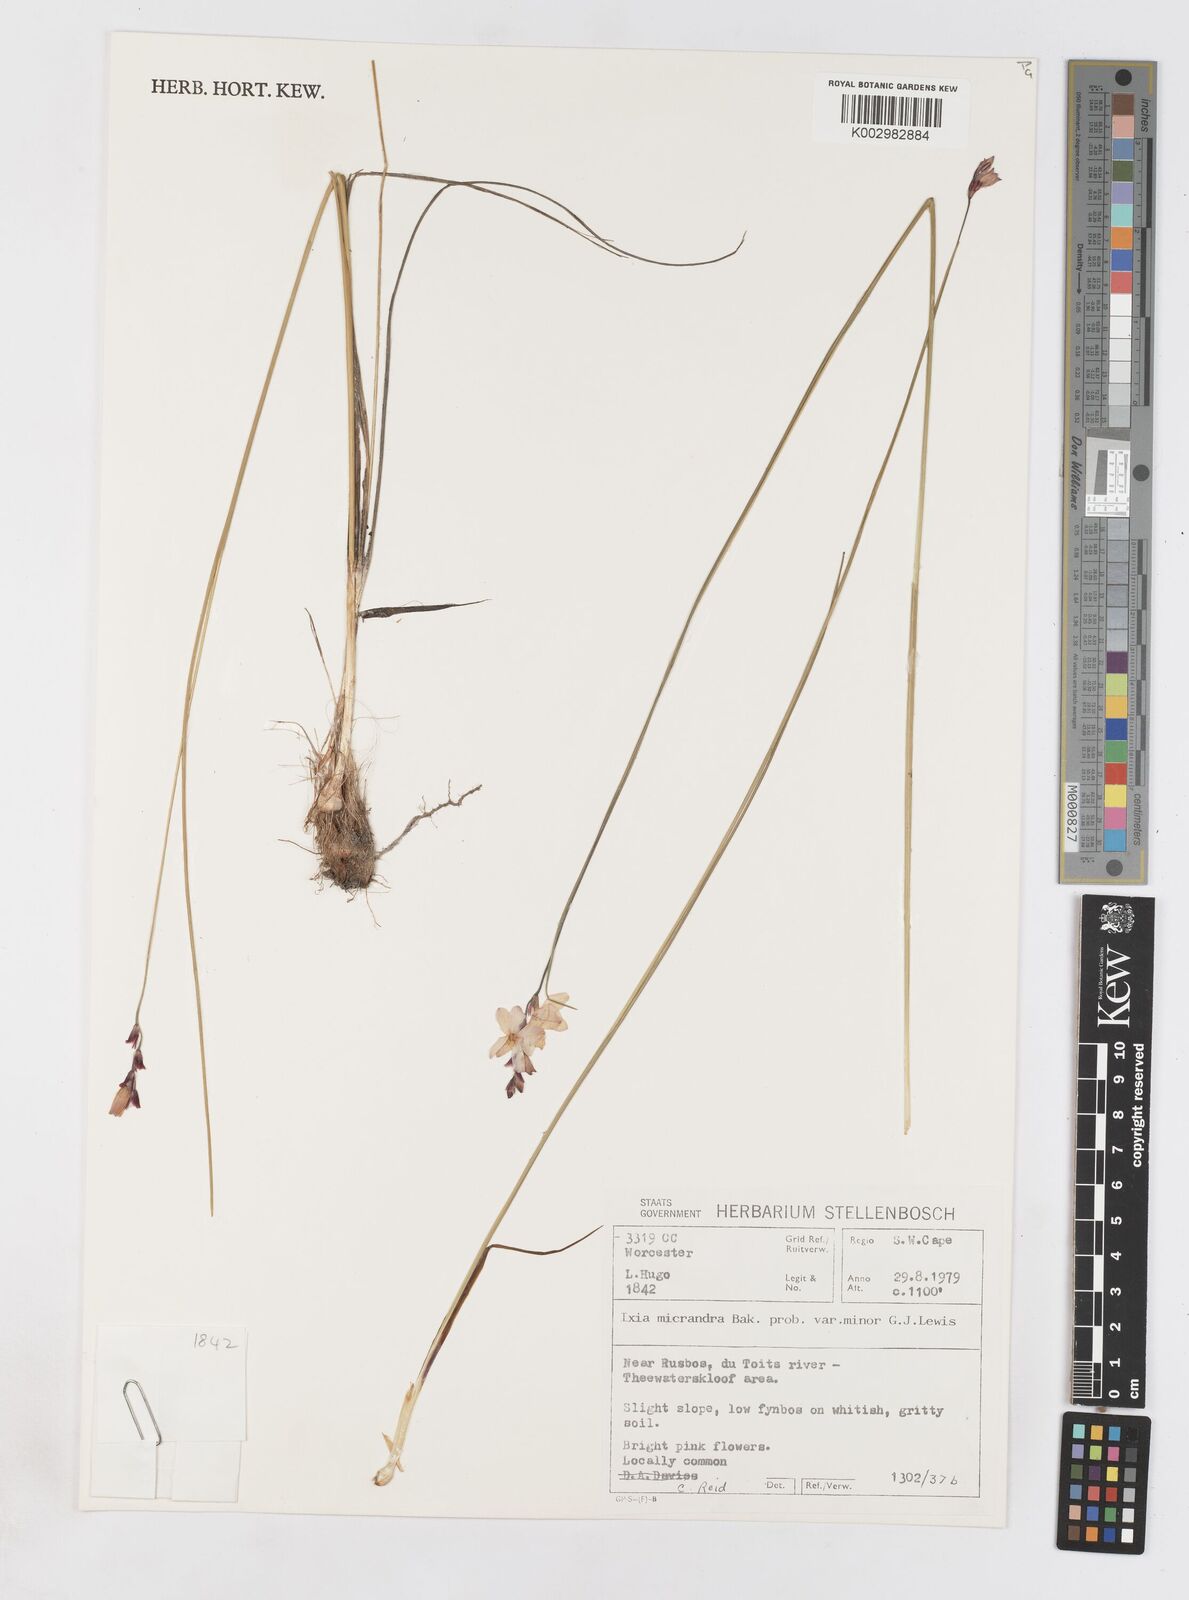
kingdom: Plantae
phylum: Tracheophyta
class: Liliopsida
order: Asparagales
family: Iridaceae
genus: Ixia
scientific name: Ixia minor
